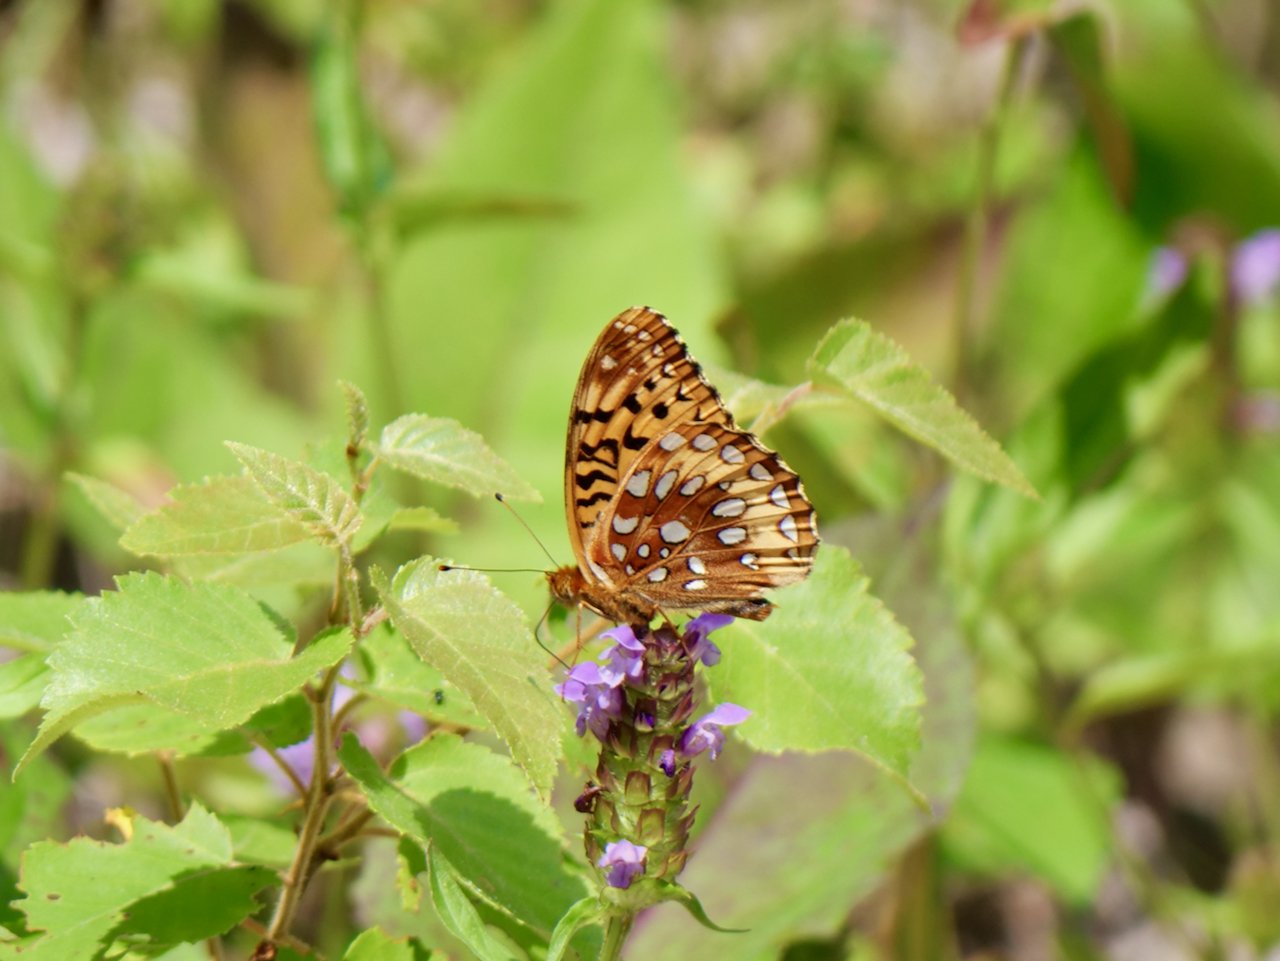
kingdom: Animalia
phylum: Arthropoda
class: Insecta
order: Lepidoptera
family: Nymphalidae
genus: Speyeria
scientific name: Speyeria cybele
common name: Great Spangled Fritillary
